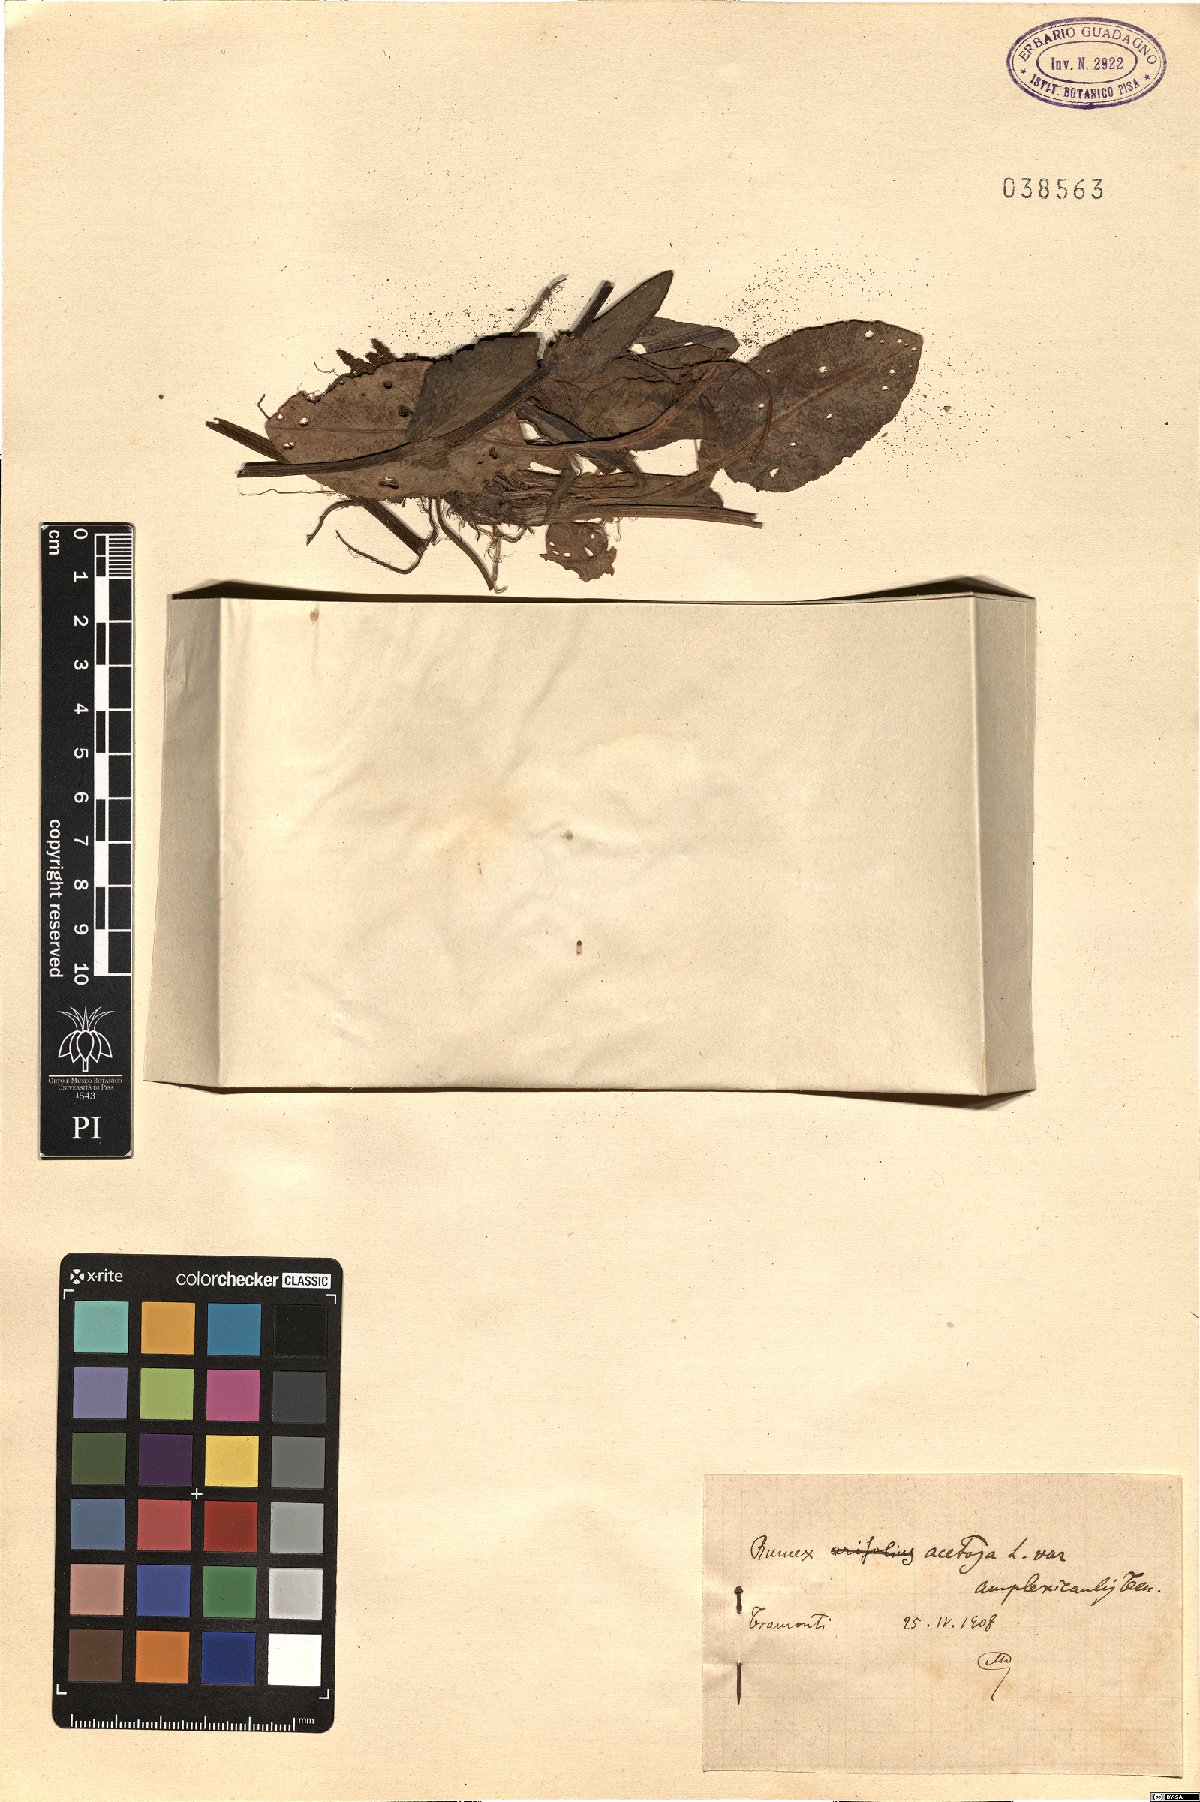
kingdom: Plantae
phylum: Tracheophyta
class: Magnoliopsida
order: Caryophyllales
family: Polygonaceae
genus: Rumex
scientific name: Rumex arifolius
